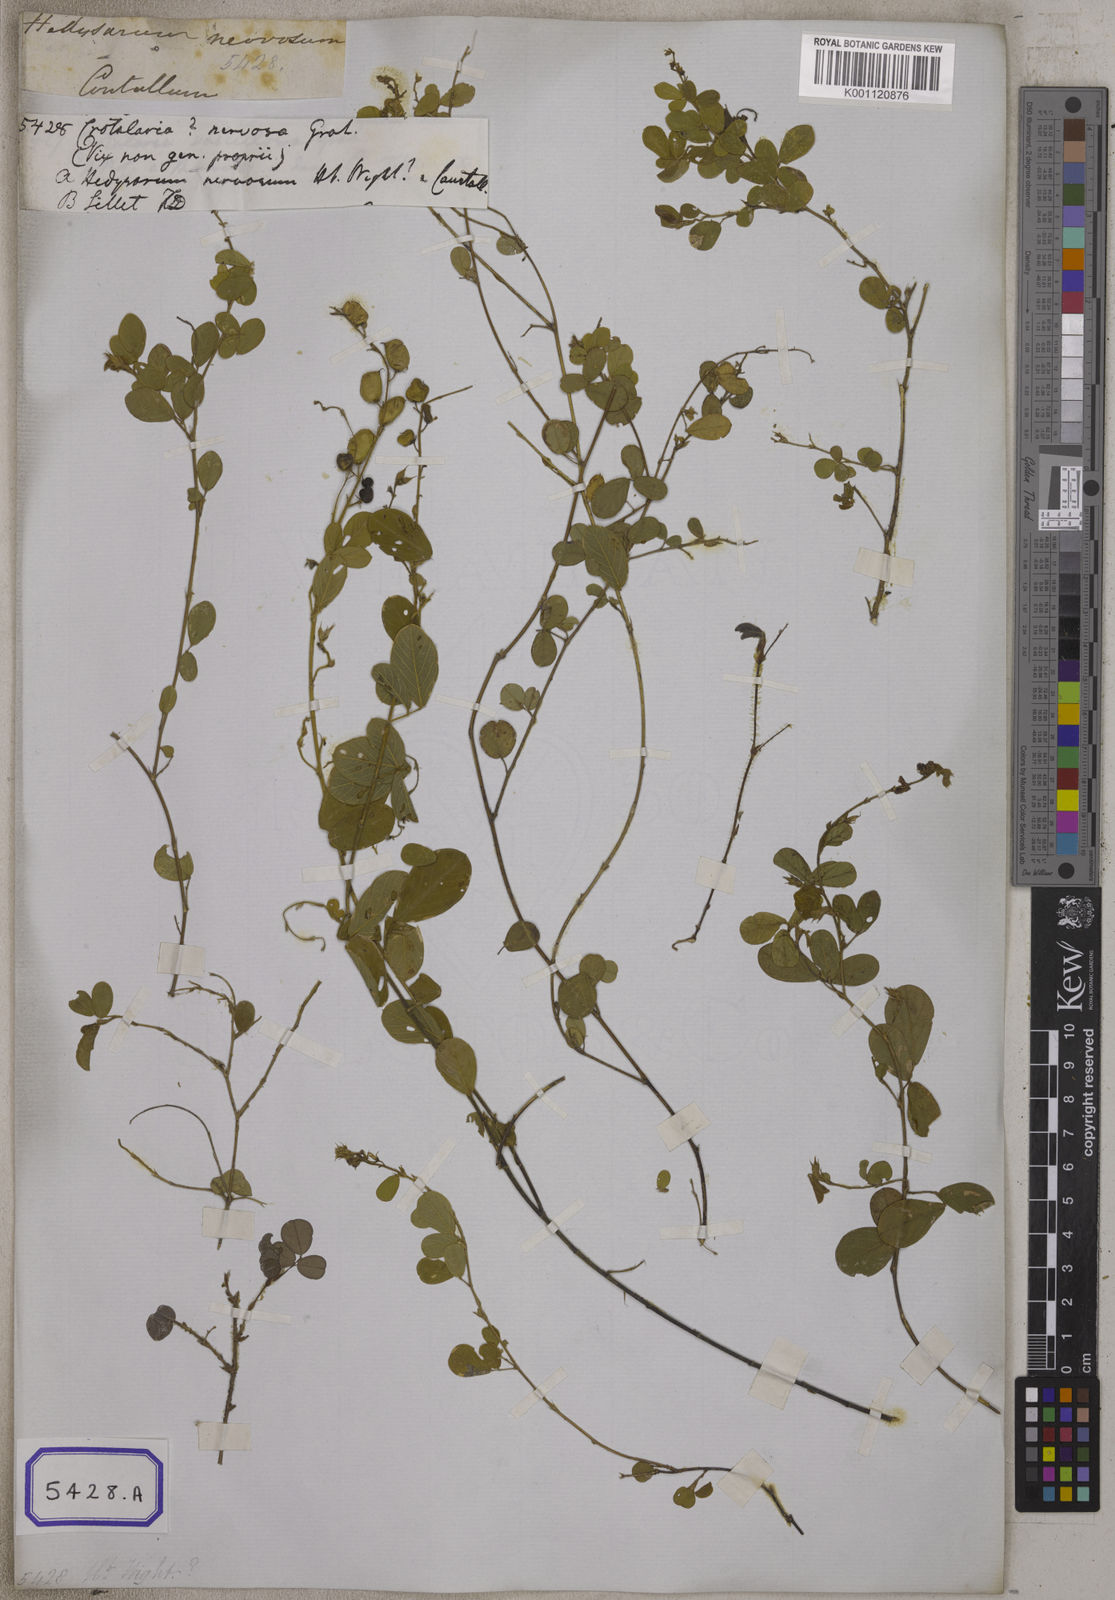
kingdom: Plantae
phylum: Tracheophyta
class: Magnoliopsida
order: Fabales
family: Fabaceae
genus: Pycnospora
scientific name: Pycnospora lutescens
